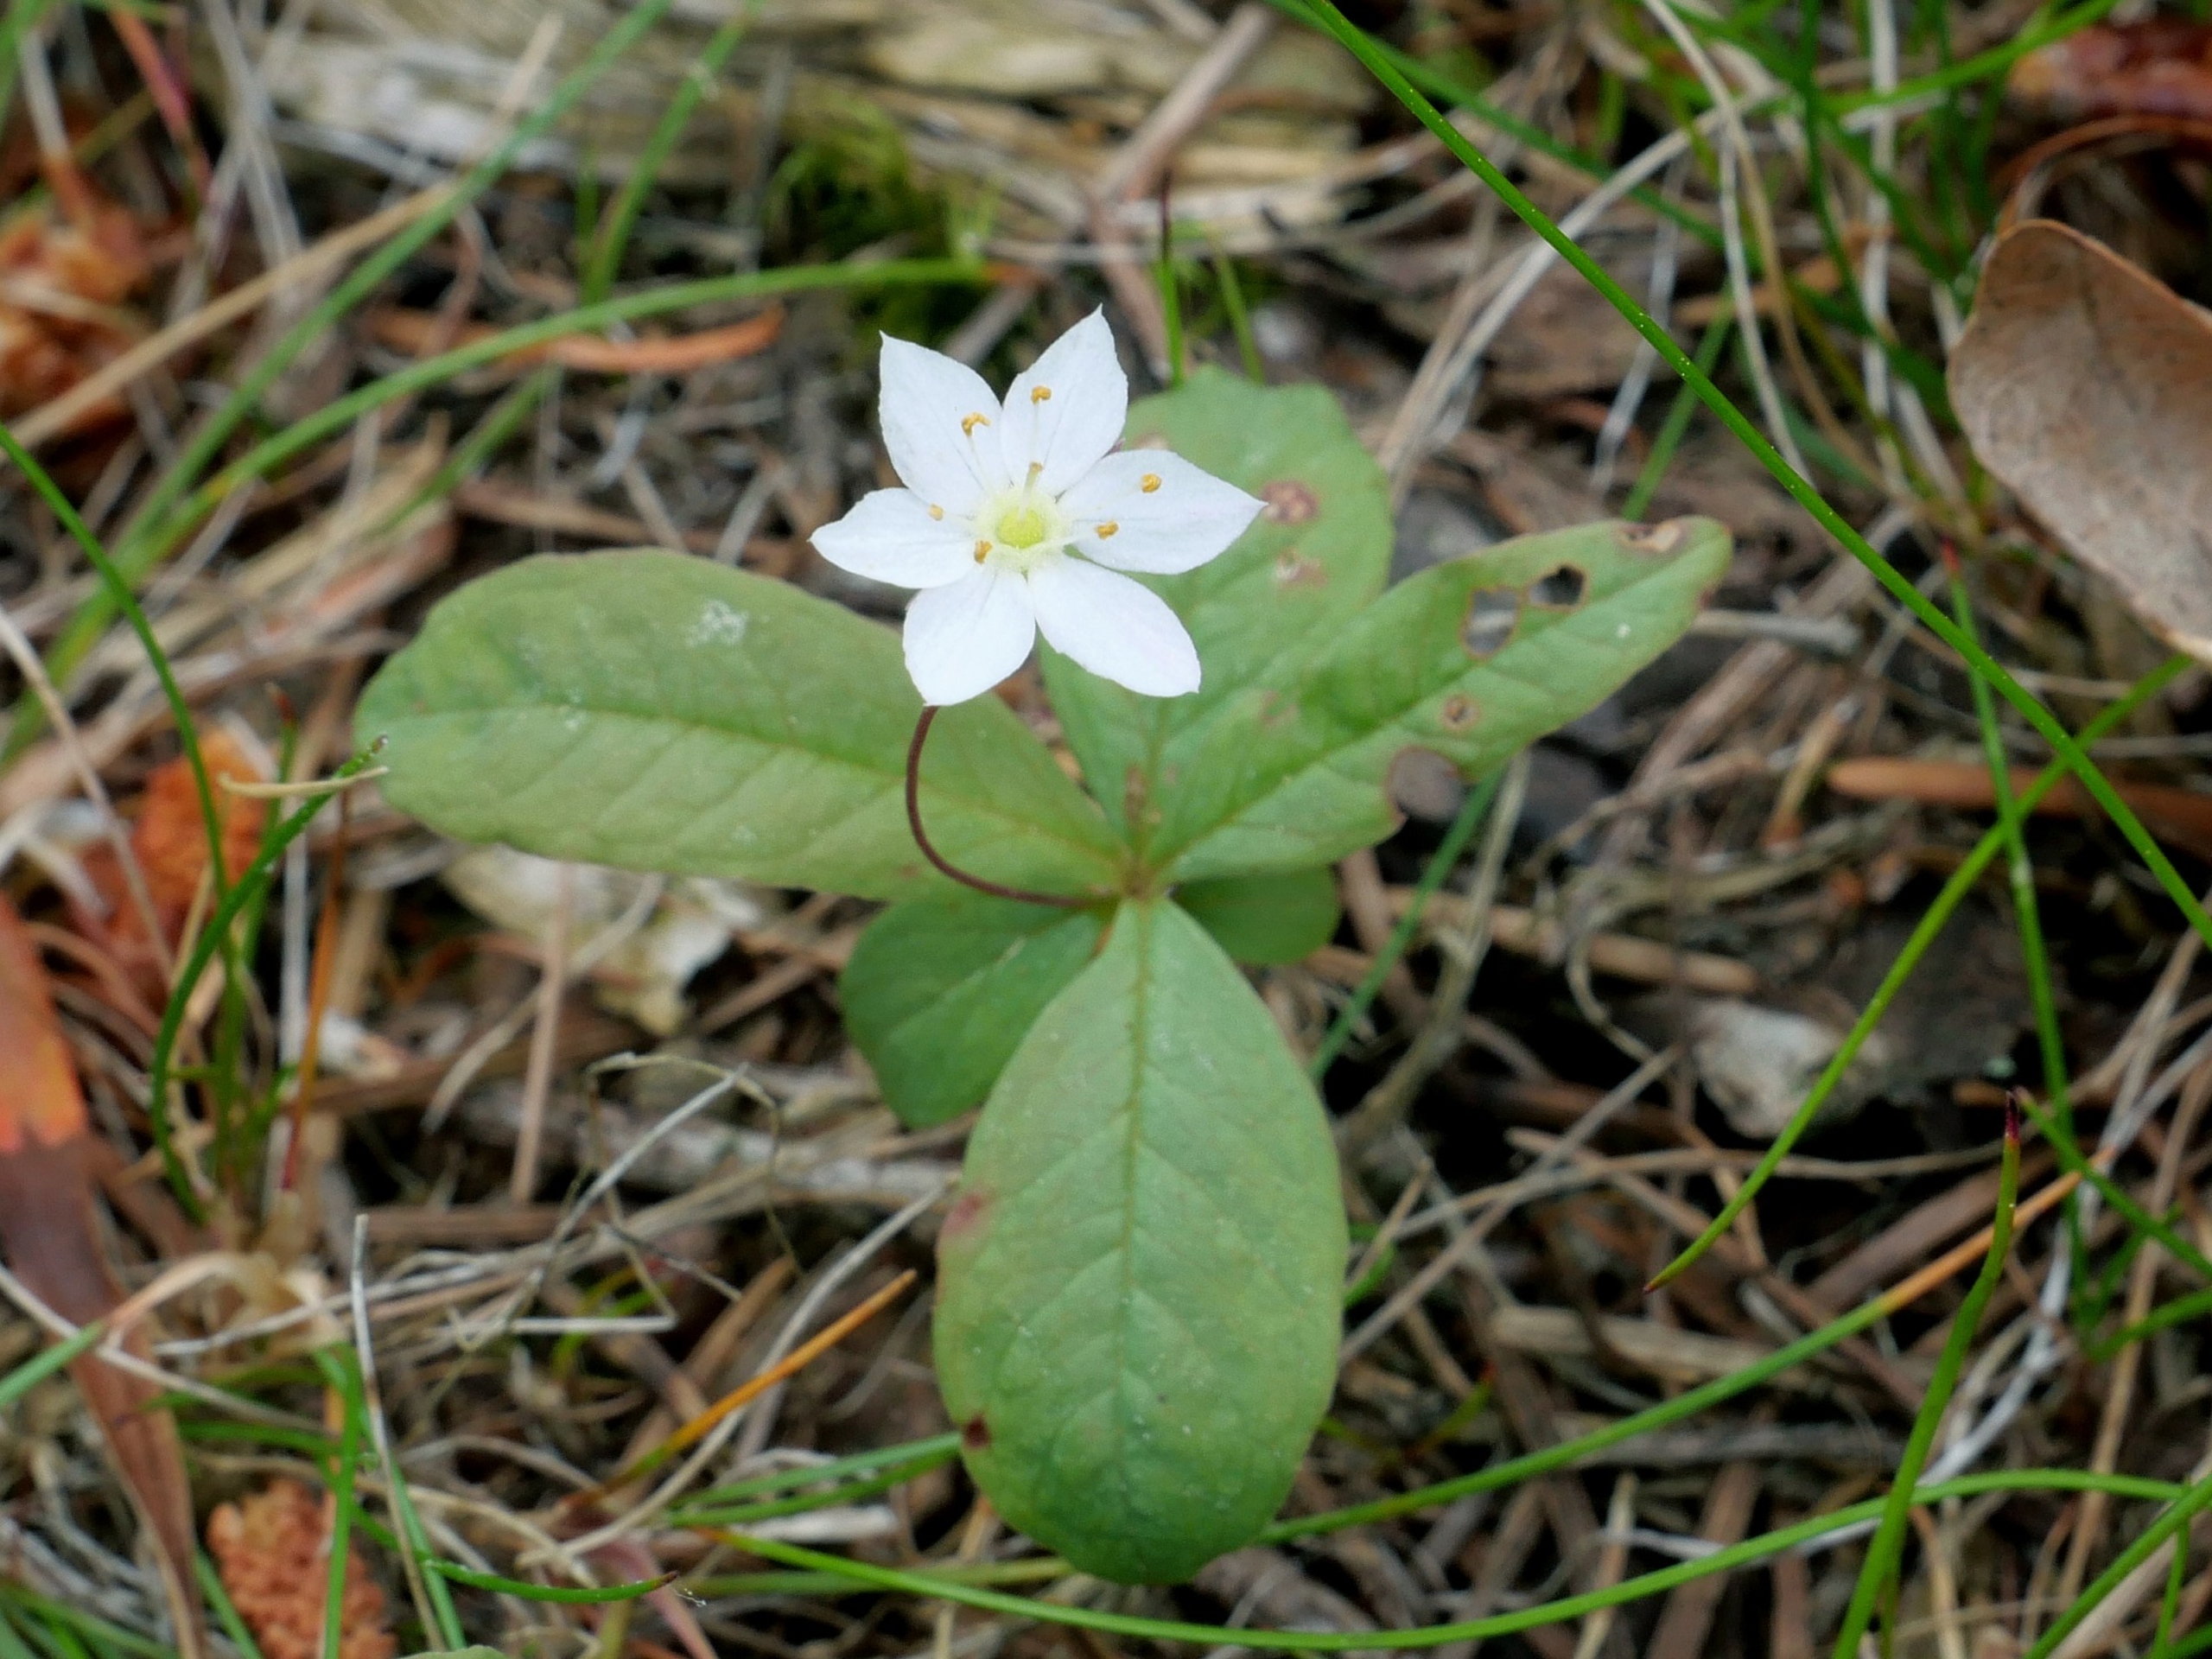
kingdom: Plantae
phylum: Tracheophyta
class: Magnoliopsida
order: Ericales
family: Primulaceae
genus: Lysimachia
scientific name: Lysimachia europaea
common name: Skovstjerne
